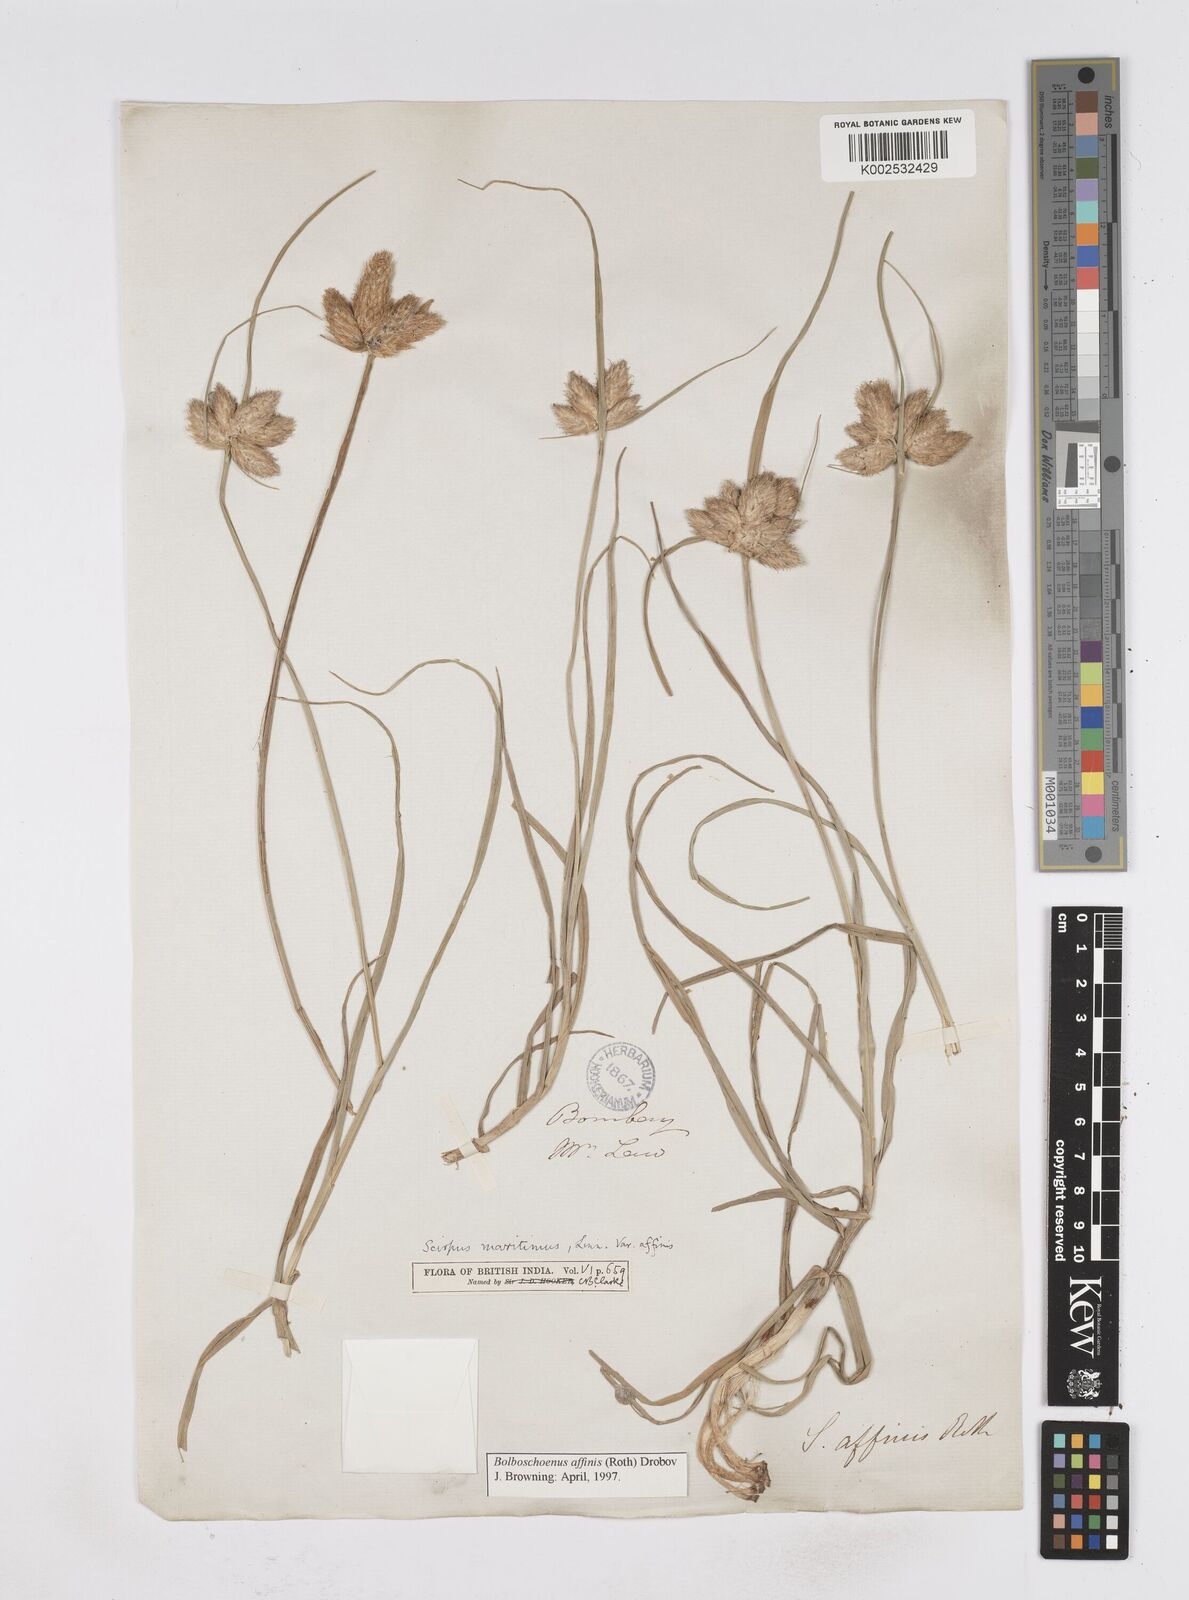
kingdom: Plantae
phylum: Tracheophyta
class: Liliopsida
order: Poales
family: Cyperaceae
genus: Bolboschoenus
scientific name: Bolboschoenus maritimus
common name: Sea club-rush
